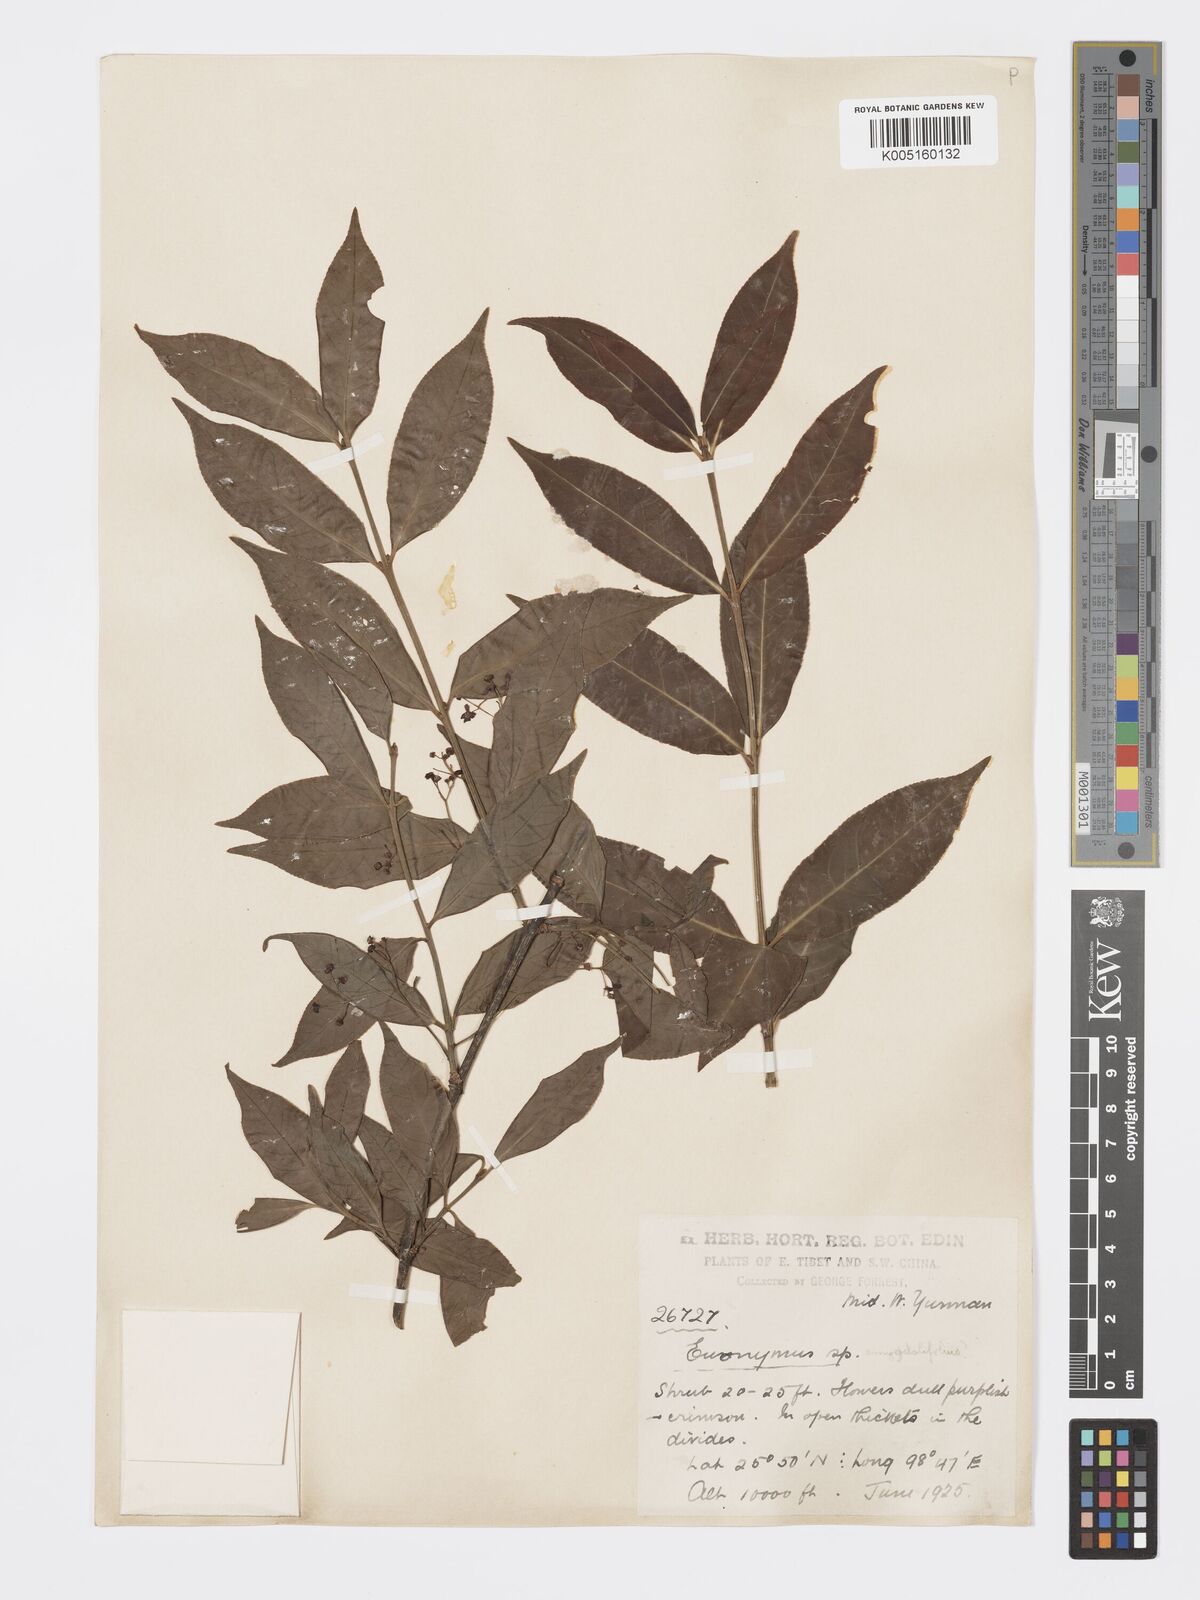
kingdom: Plantae
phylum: Tracheophyta
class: Magnoliopsida
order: Celastrales
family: Celastraceae
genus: Euonymus
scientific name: Euonymus amygdalifolius
